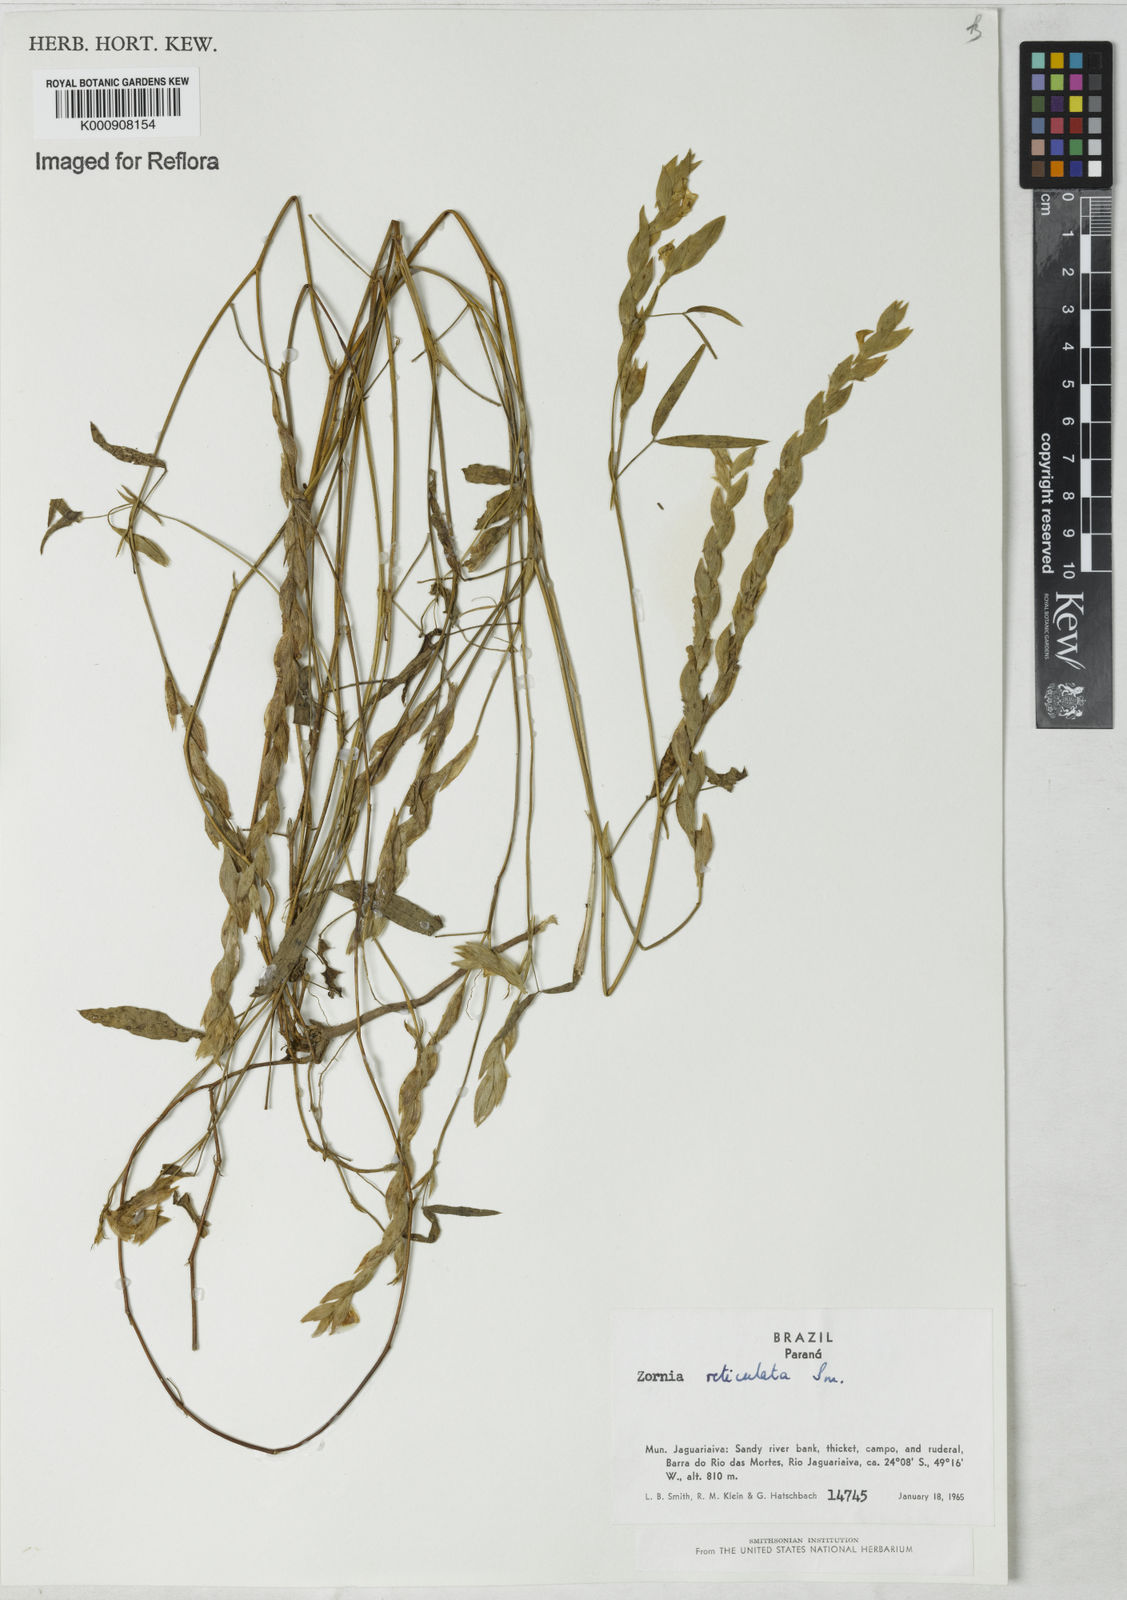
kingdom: Plantae
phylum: Tracheophyta
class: Magnoliopsida
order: Fabales
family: Fabaceae
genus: Zornia
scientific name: Zornia reticulata
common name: Reticulate viperina
